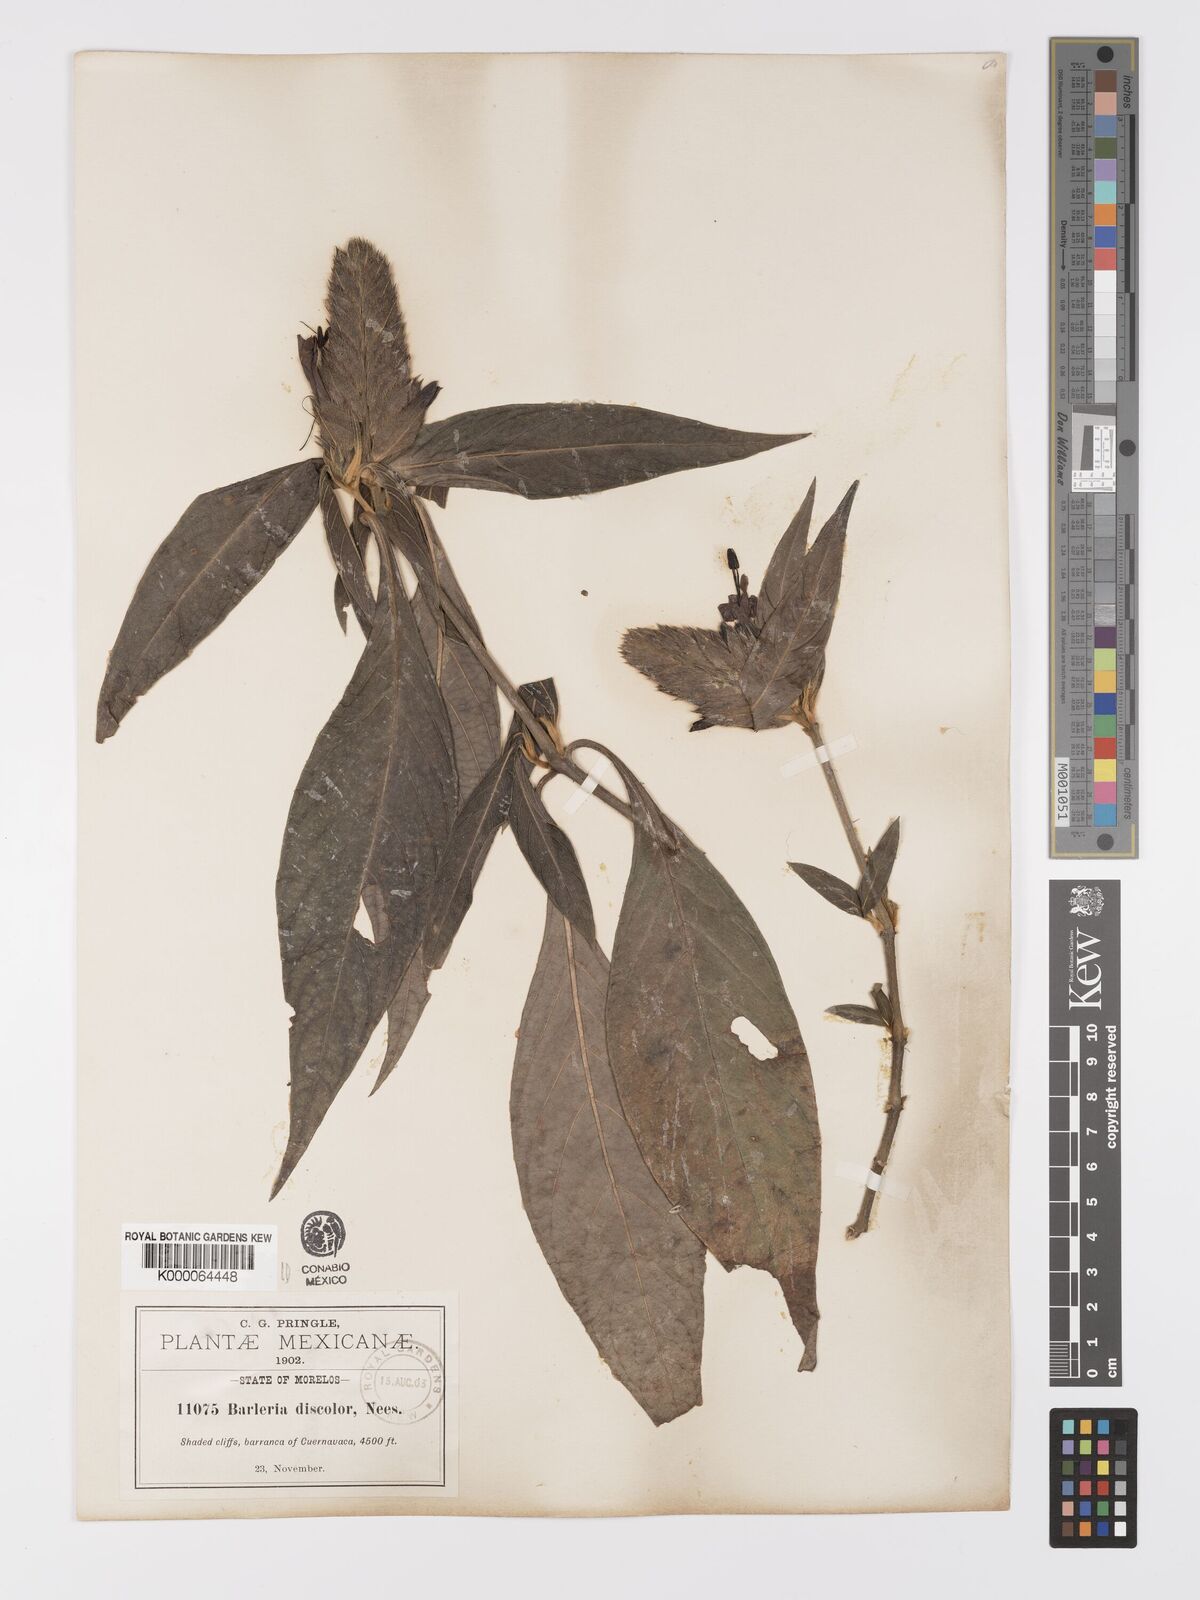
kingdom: Plantae
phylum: Tracheophyta
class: Magnoliopsida
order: Lamiales
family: Acanthaceae
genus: Barleria
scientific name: Barleria oenotheroides
